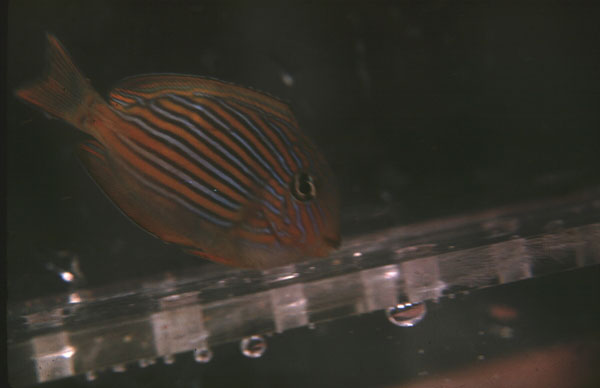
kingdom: Animalia
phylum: Chordata
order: Perciformes
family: Acanthuridae
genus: Acanthurus
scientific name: Acanthurus lineatus
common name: Striped surgeonfish
